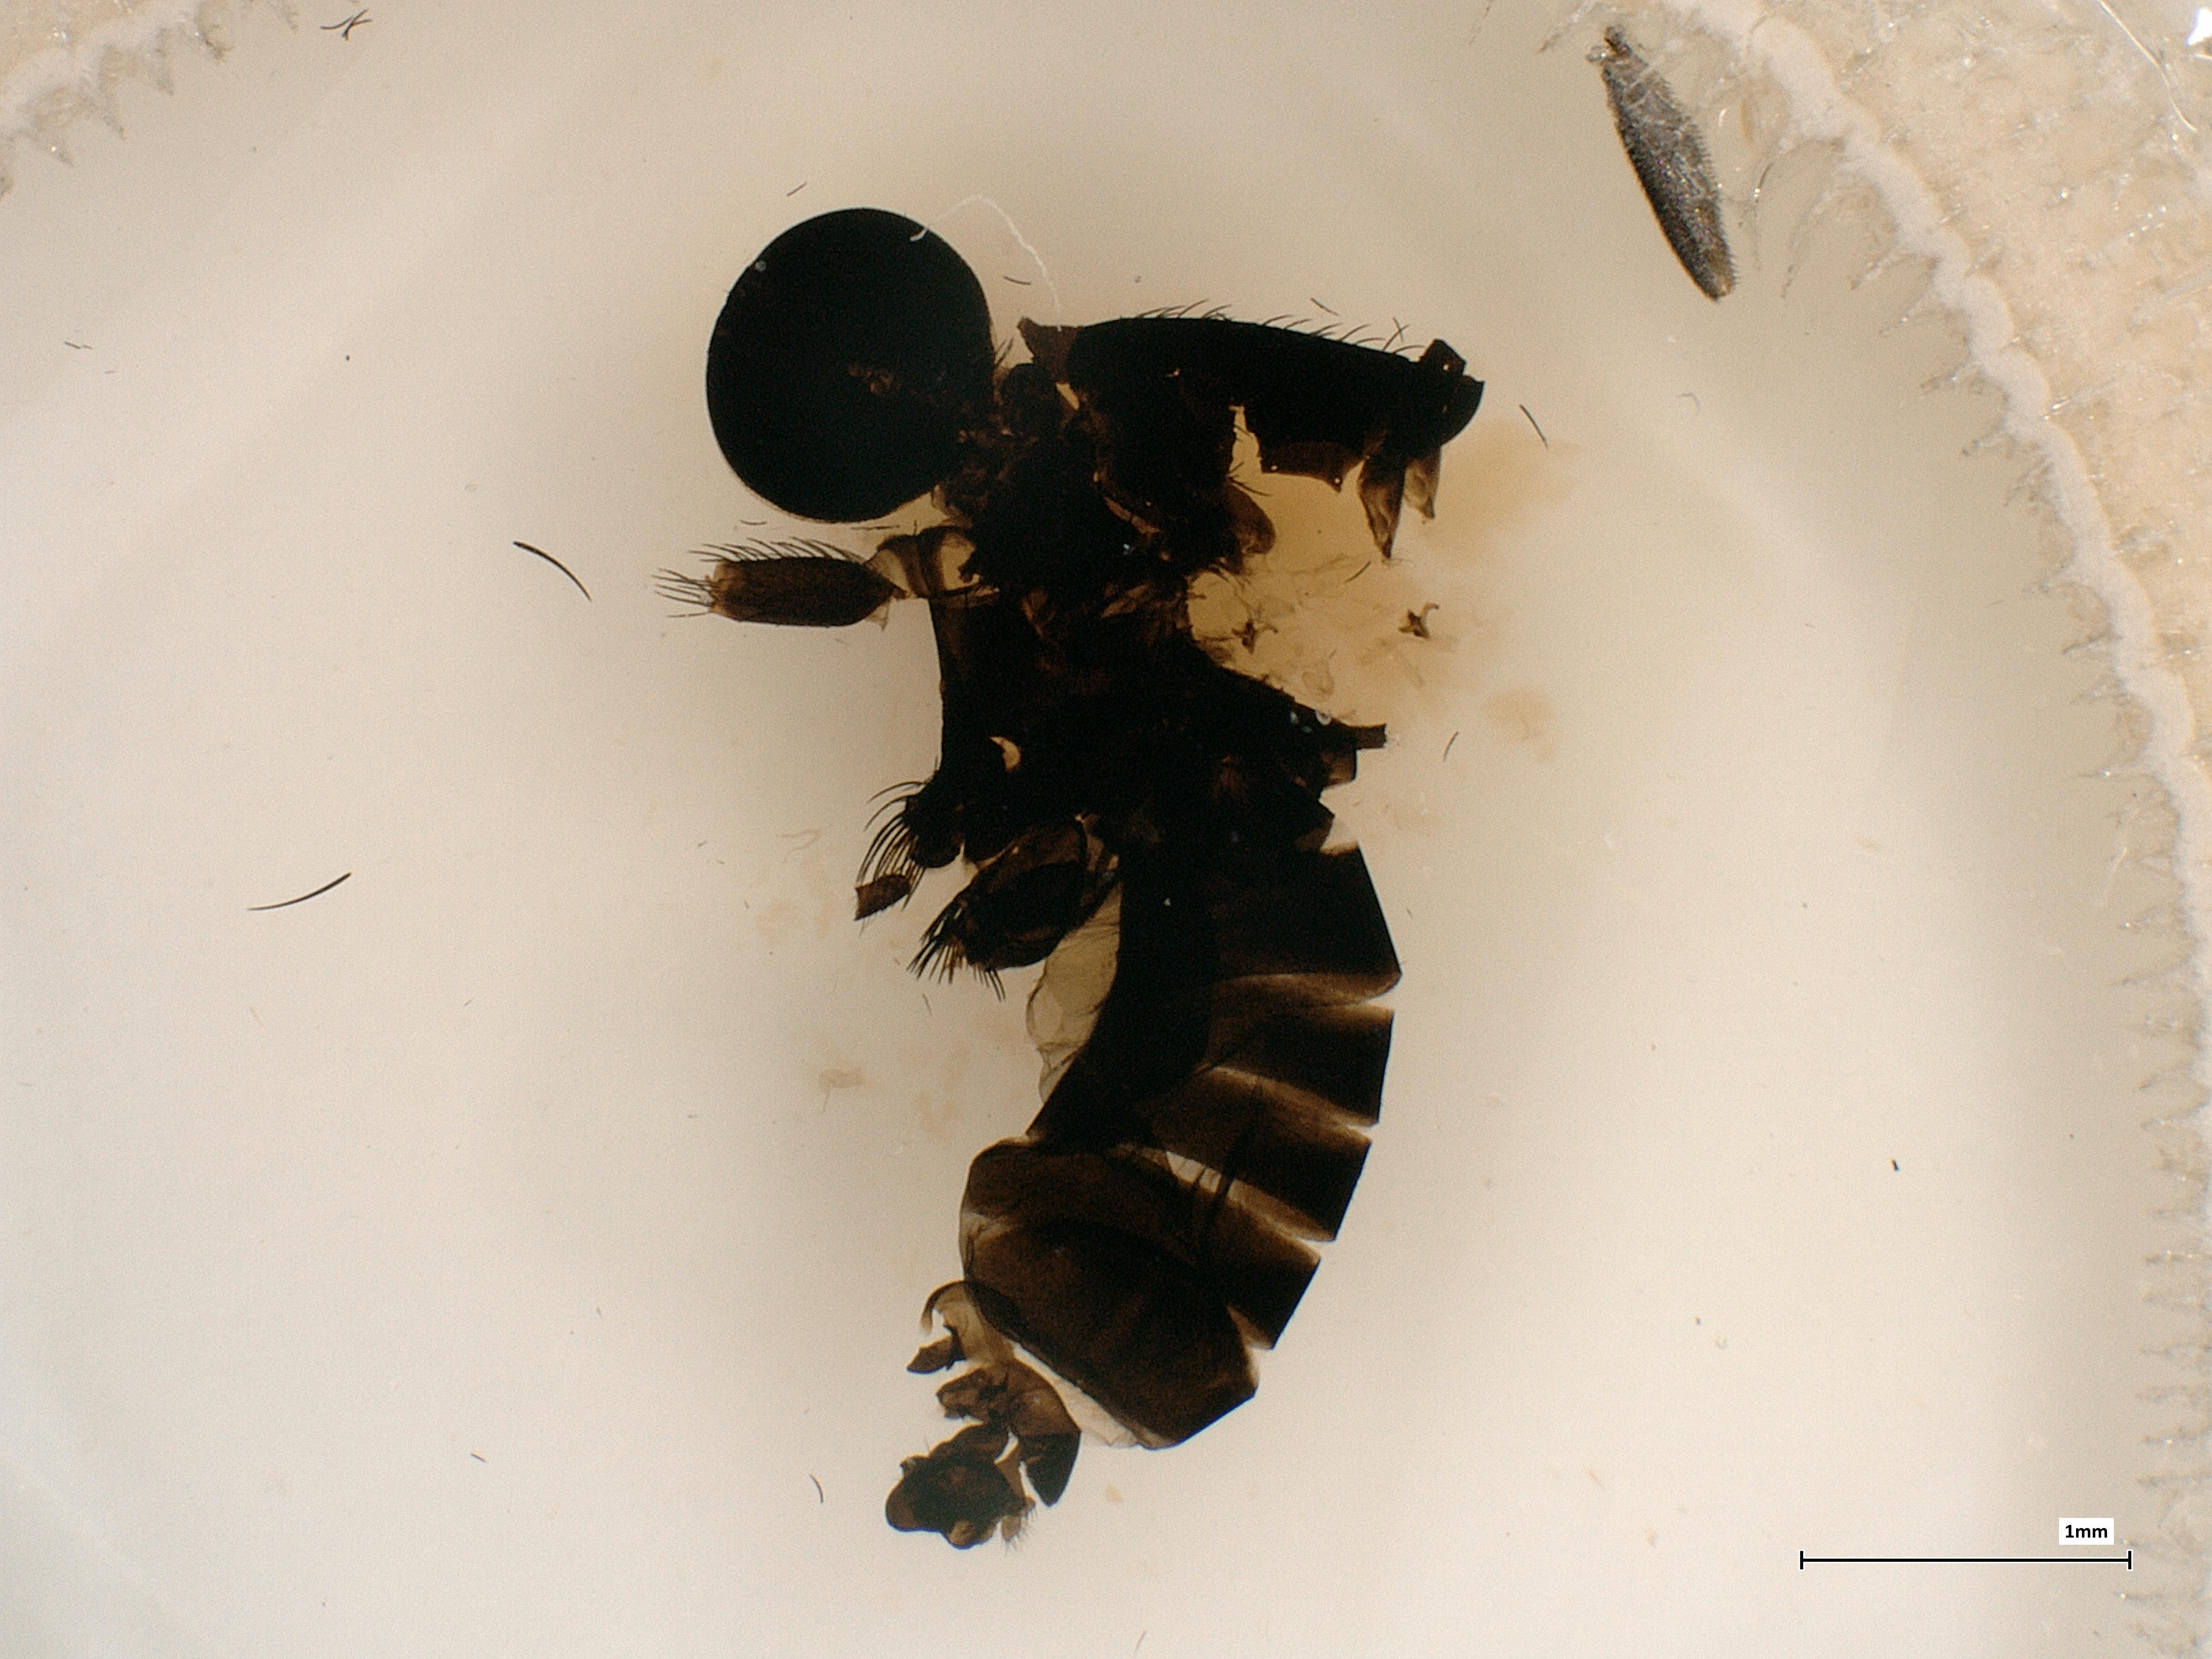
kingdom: Animalia
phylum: Arthropoda
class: Insecta
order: Diptera
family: Phoridae
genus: Phora
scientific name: Phora tincta
